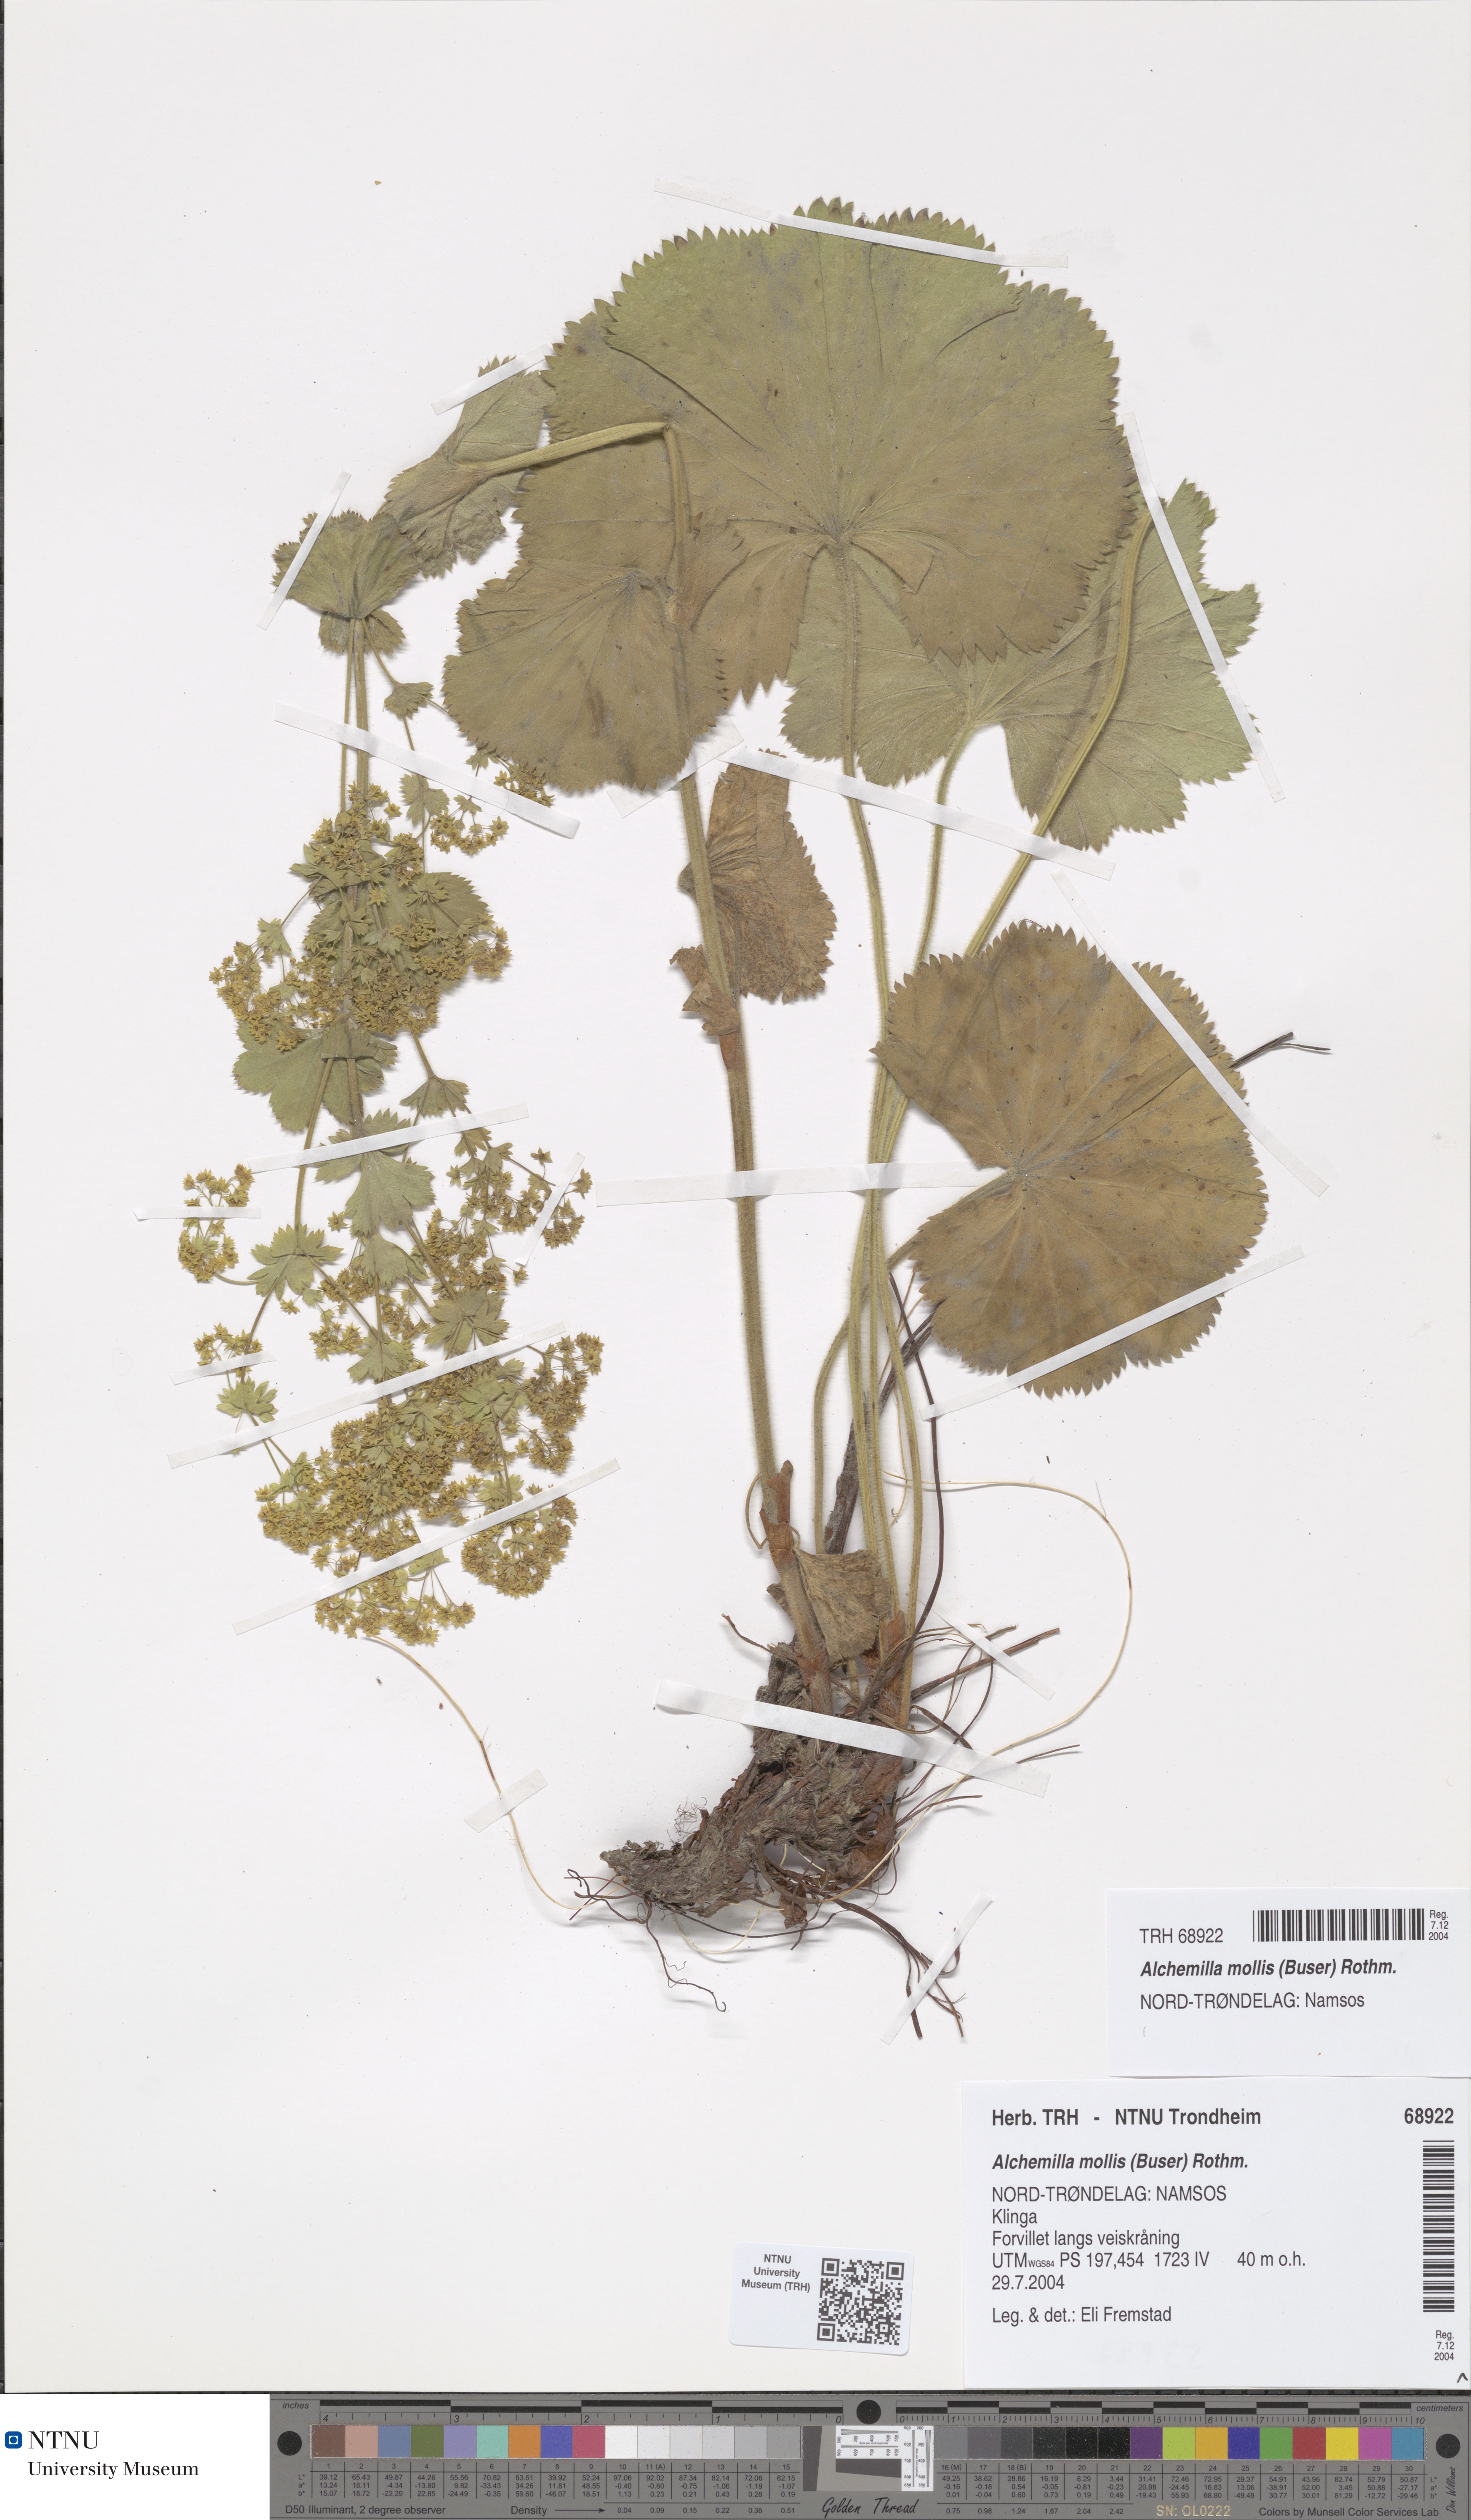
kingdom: Plantae
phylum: Tracheophyta
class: Magnoliopsida
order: Rosales
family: Rosaceae
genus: Alchemilla
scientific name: Alchemilla mollis
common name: Lady's-mantle
